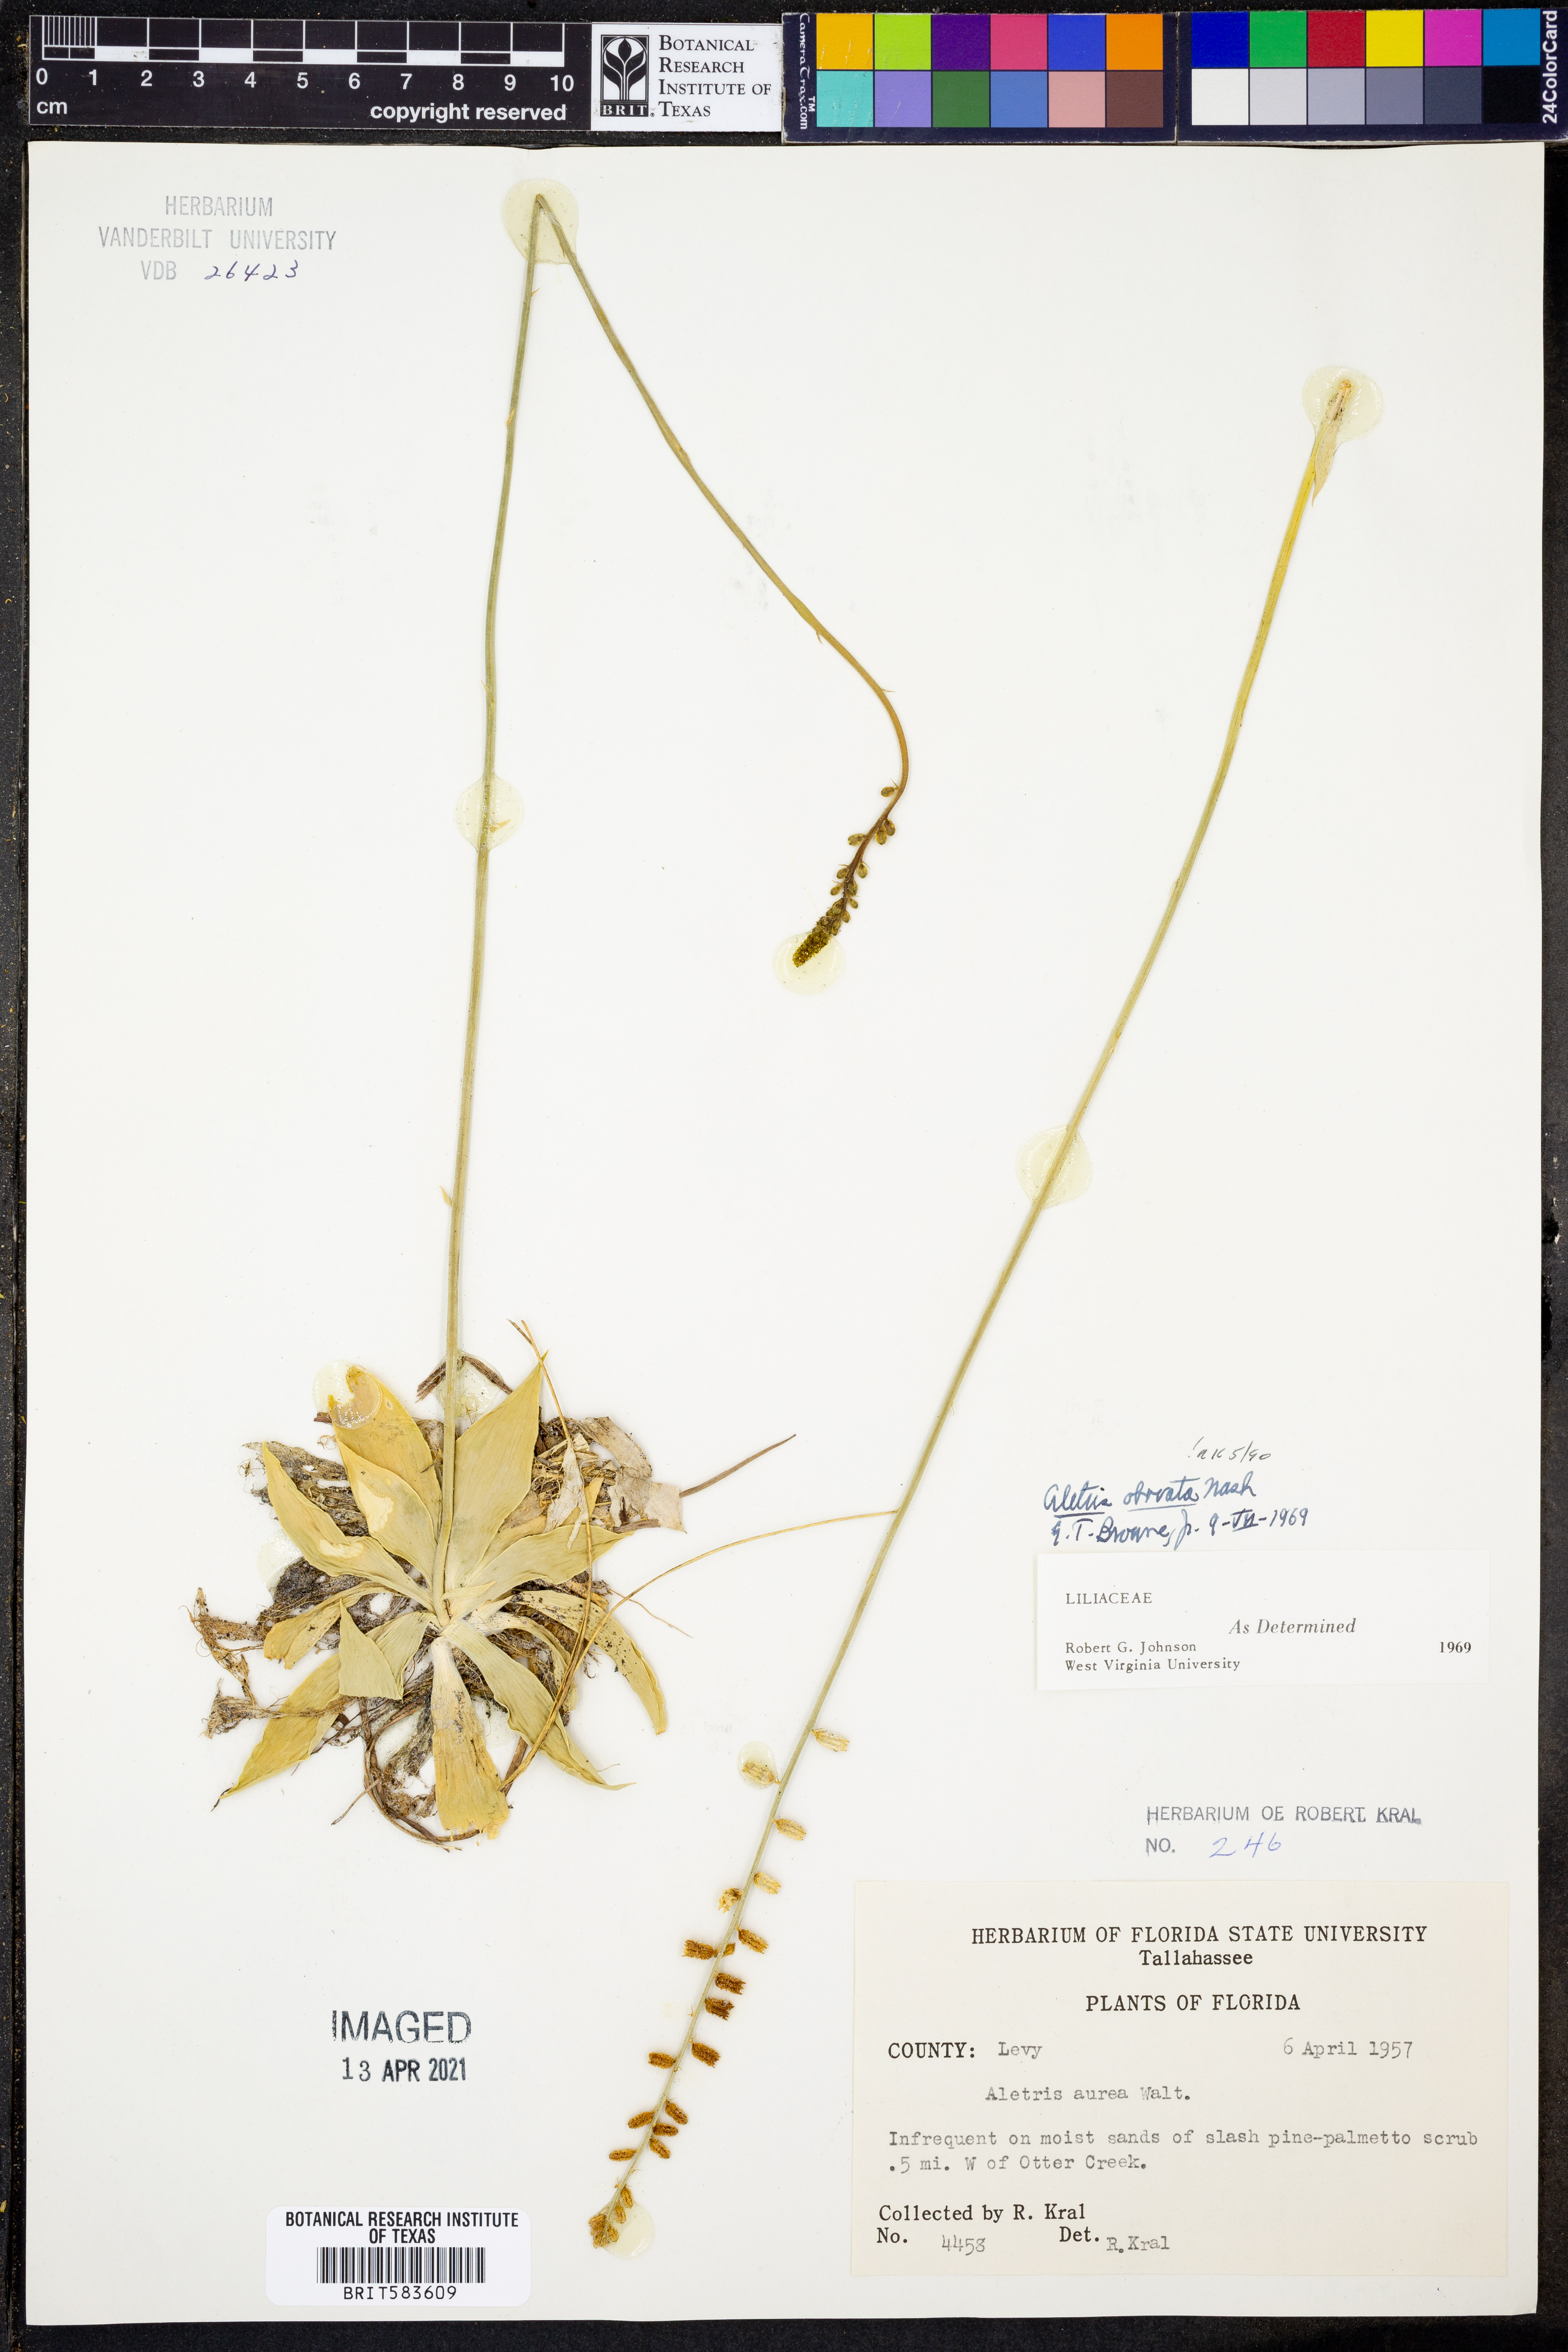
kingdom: Plantae
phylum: Tracheophyta
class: Liliopsida
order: Dioscoreales
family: Nartheciaceae
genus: Aletris
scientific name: Aletris obovata
